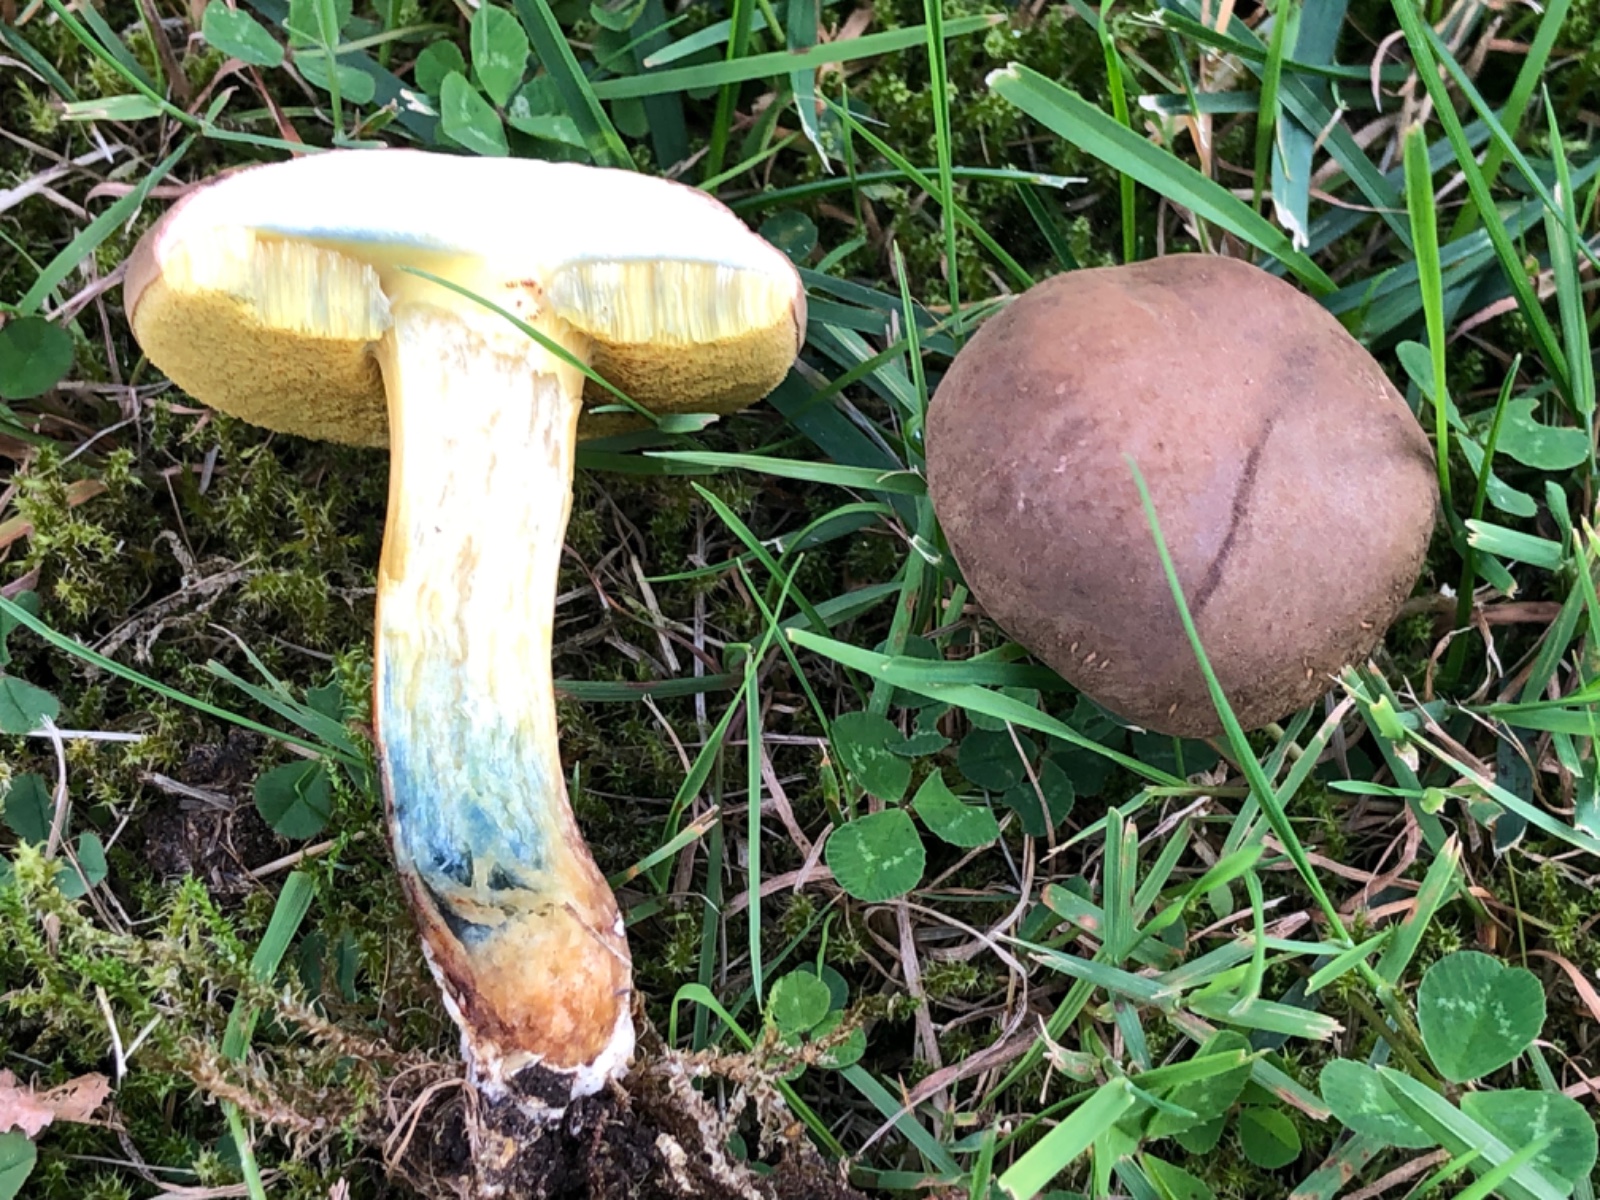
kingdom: Fungi
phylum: Basidiomycota
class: Agaricomycetes
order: Boletales
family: Boletaceae
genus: Xerocomellus
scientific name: Xerocomellus cisalpinus
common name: finsprukken rørhat
